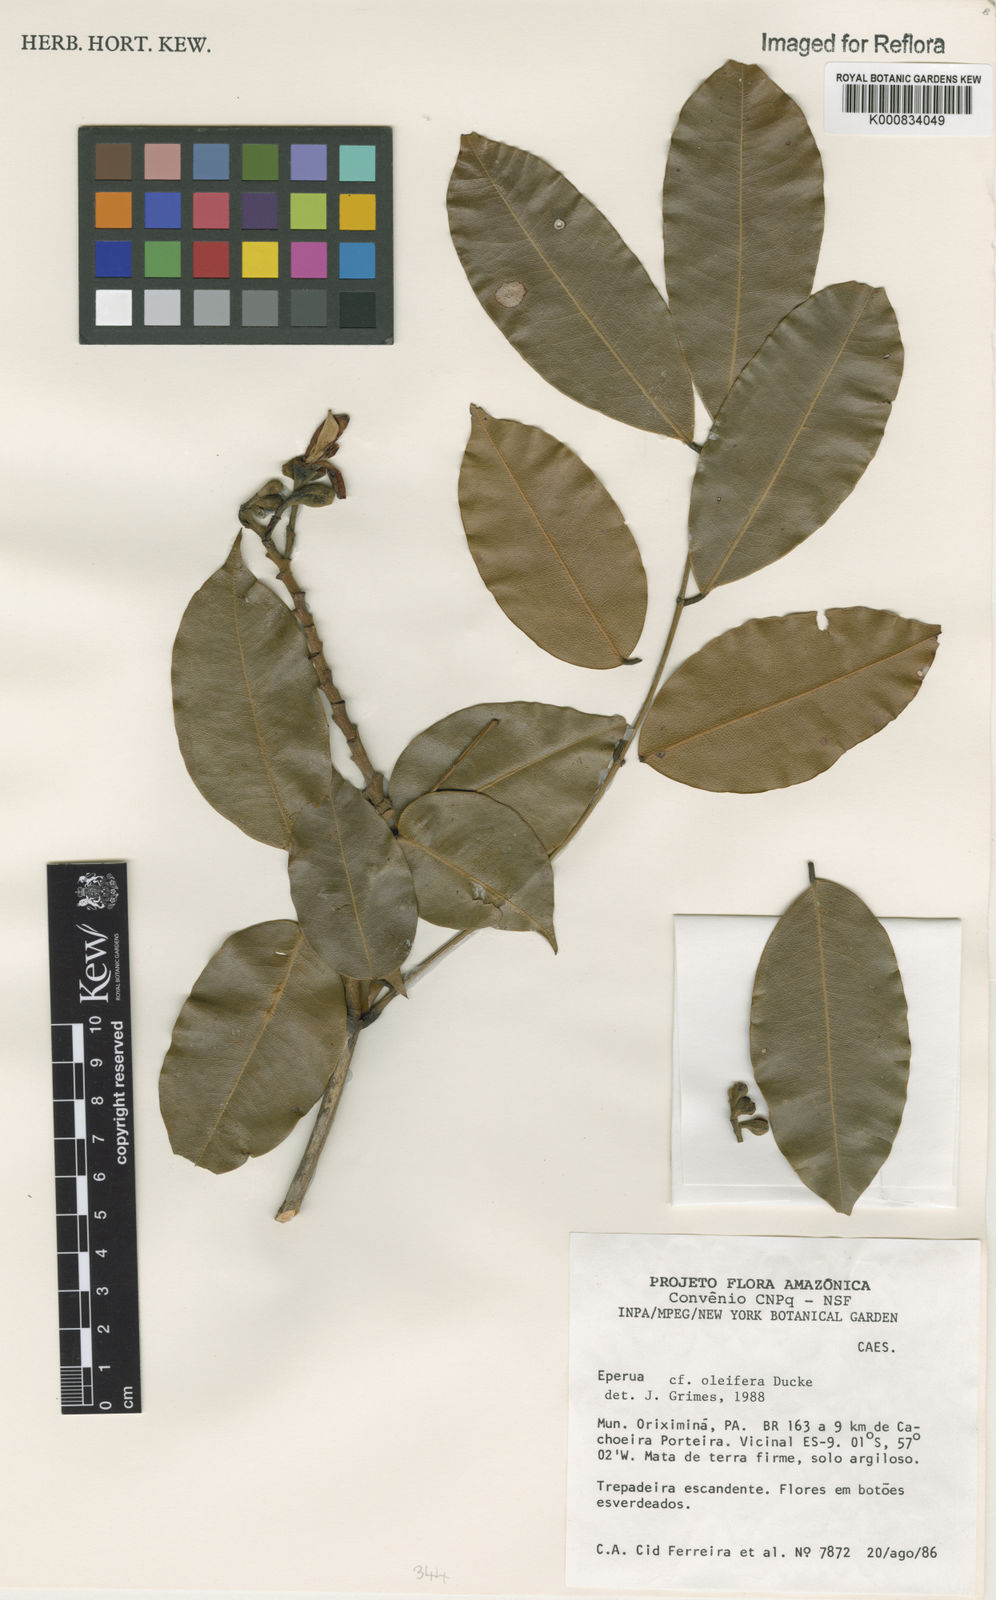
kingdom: Plantae
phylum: Tracheophyta
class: Magnoliopsida
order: Fabales
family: Fabaceae
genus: Eperua
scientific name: Eperua oleifera
